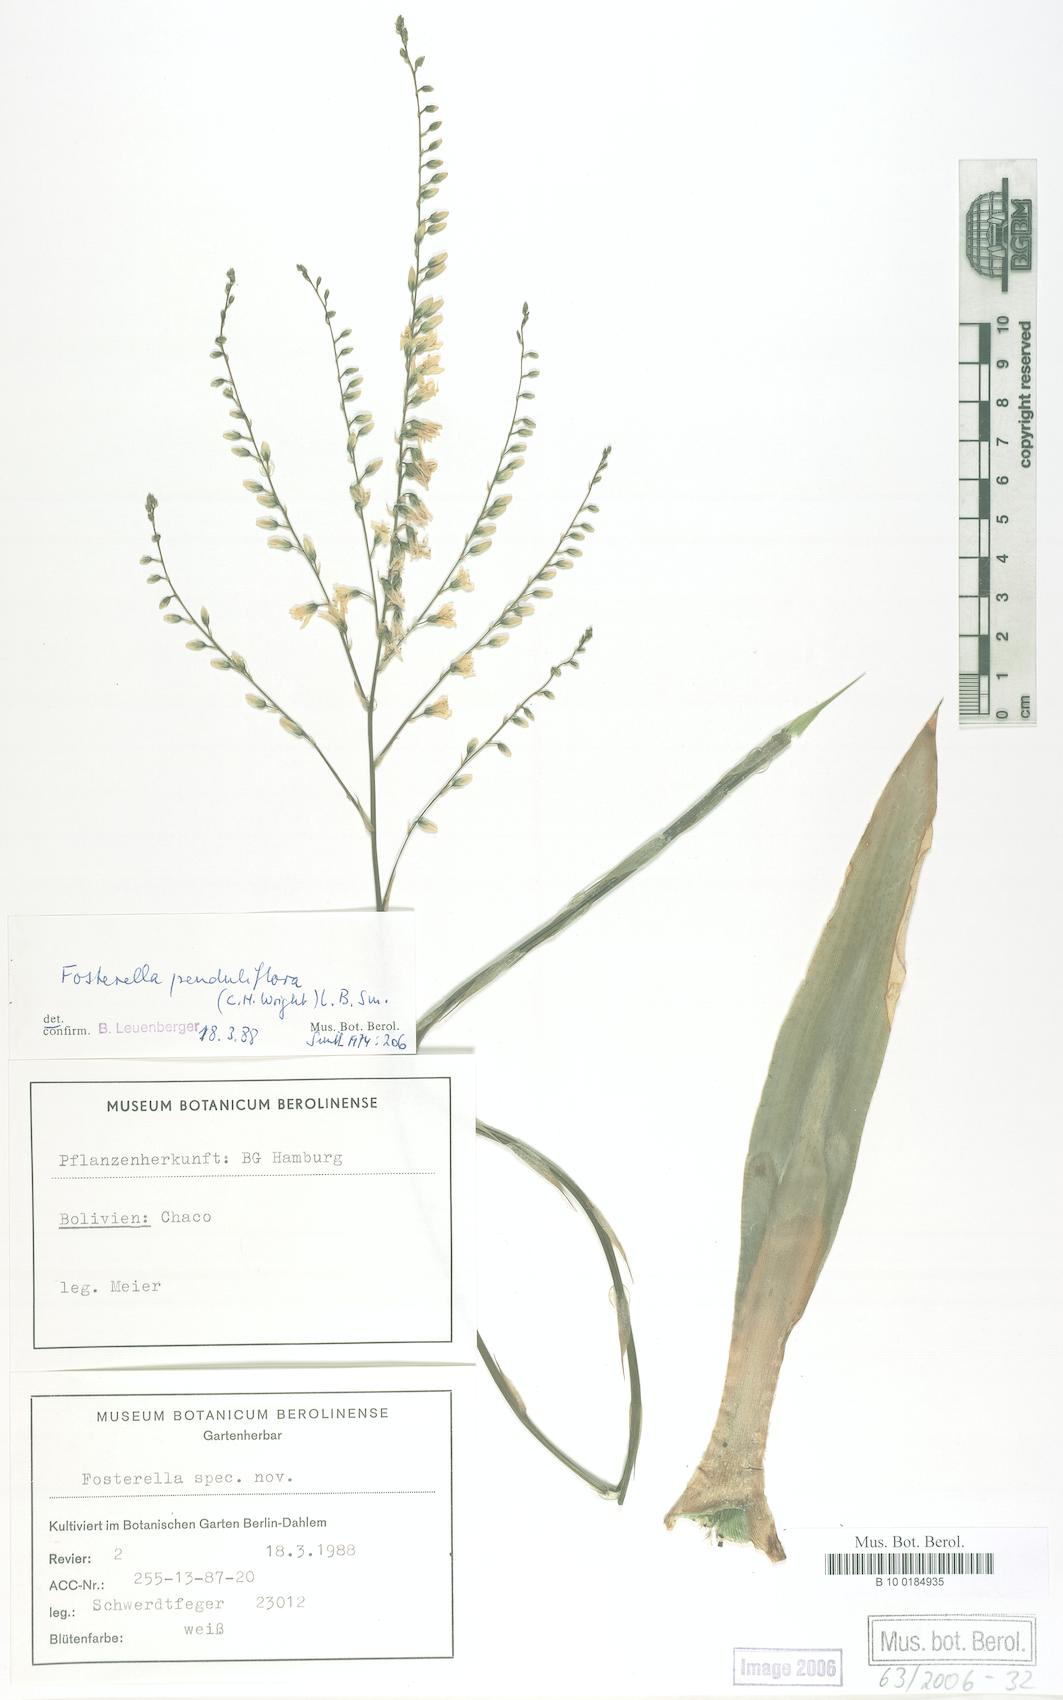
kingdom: Plantae
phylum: Tracheophyta
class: Liliopsida
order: Poales
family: Bromeliaceae
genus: Fosterella
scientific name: Fosterella penduliflora
